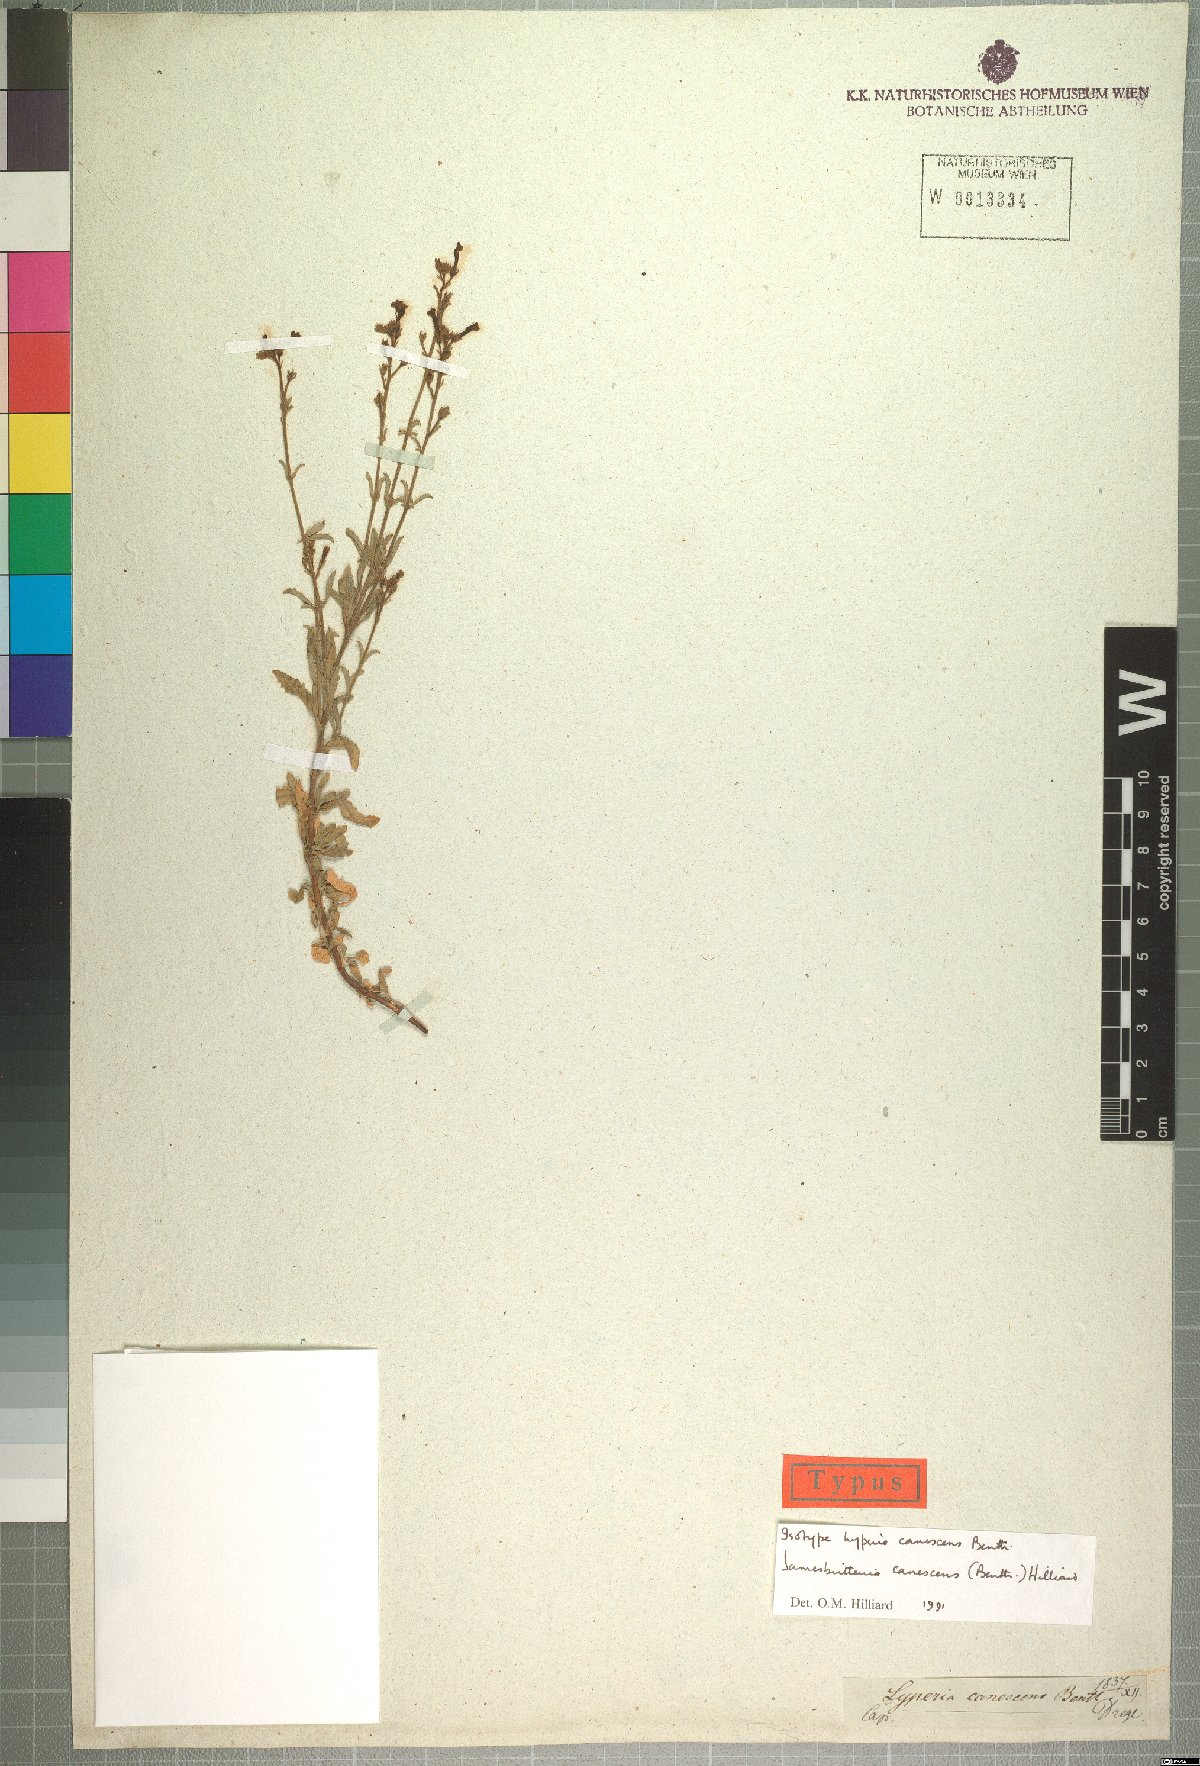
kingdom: Plantae
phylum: Tracheophyta
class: Magnoliopsida
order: Lamiales
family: Scrophulariaceae
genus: Jamesbrittenia
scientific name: Jamesbrittenia canescens
